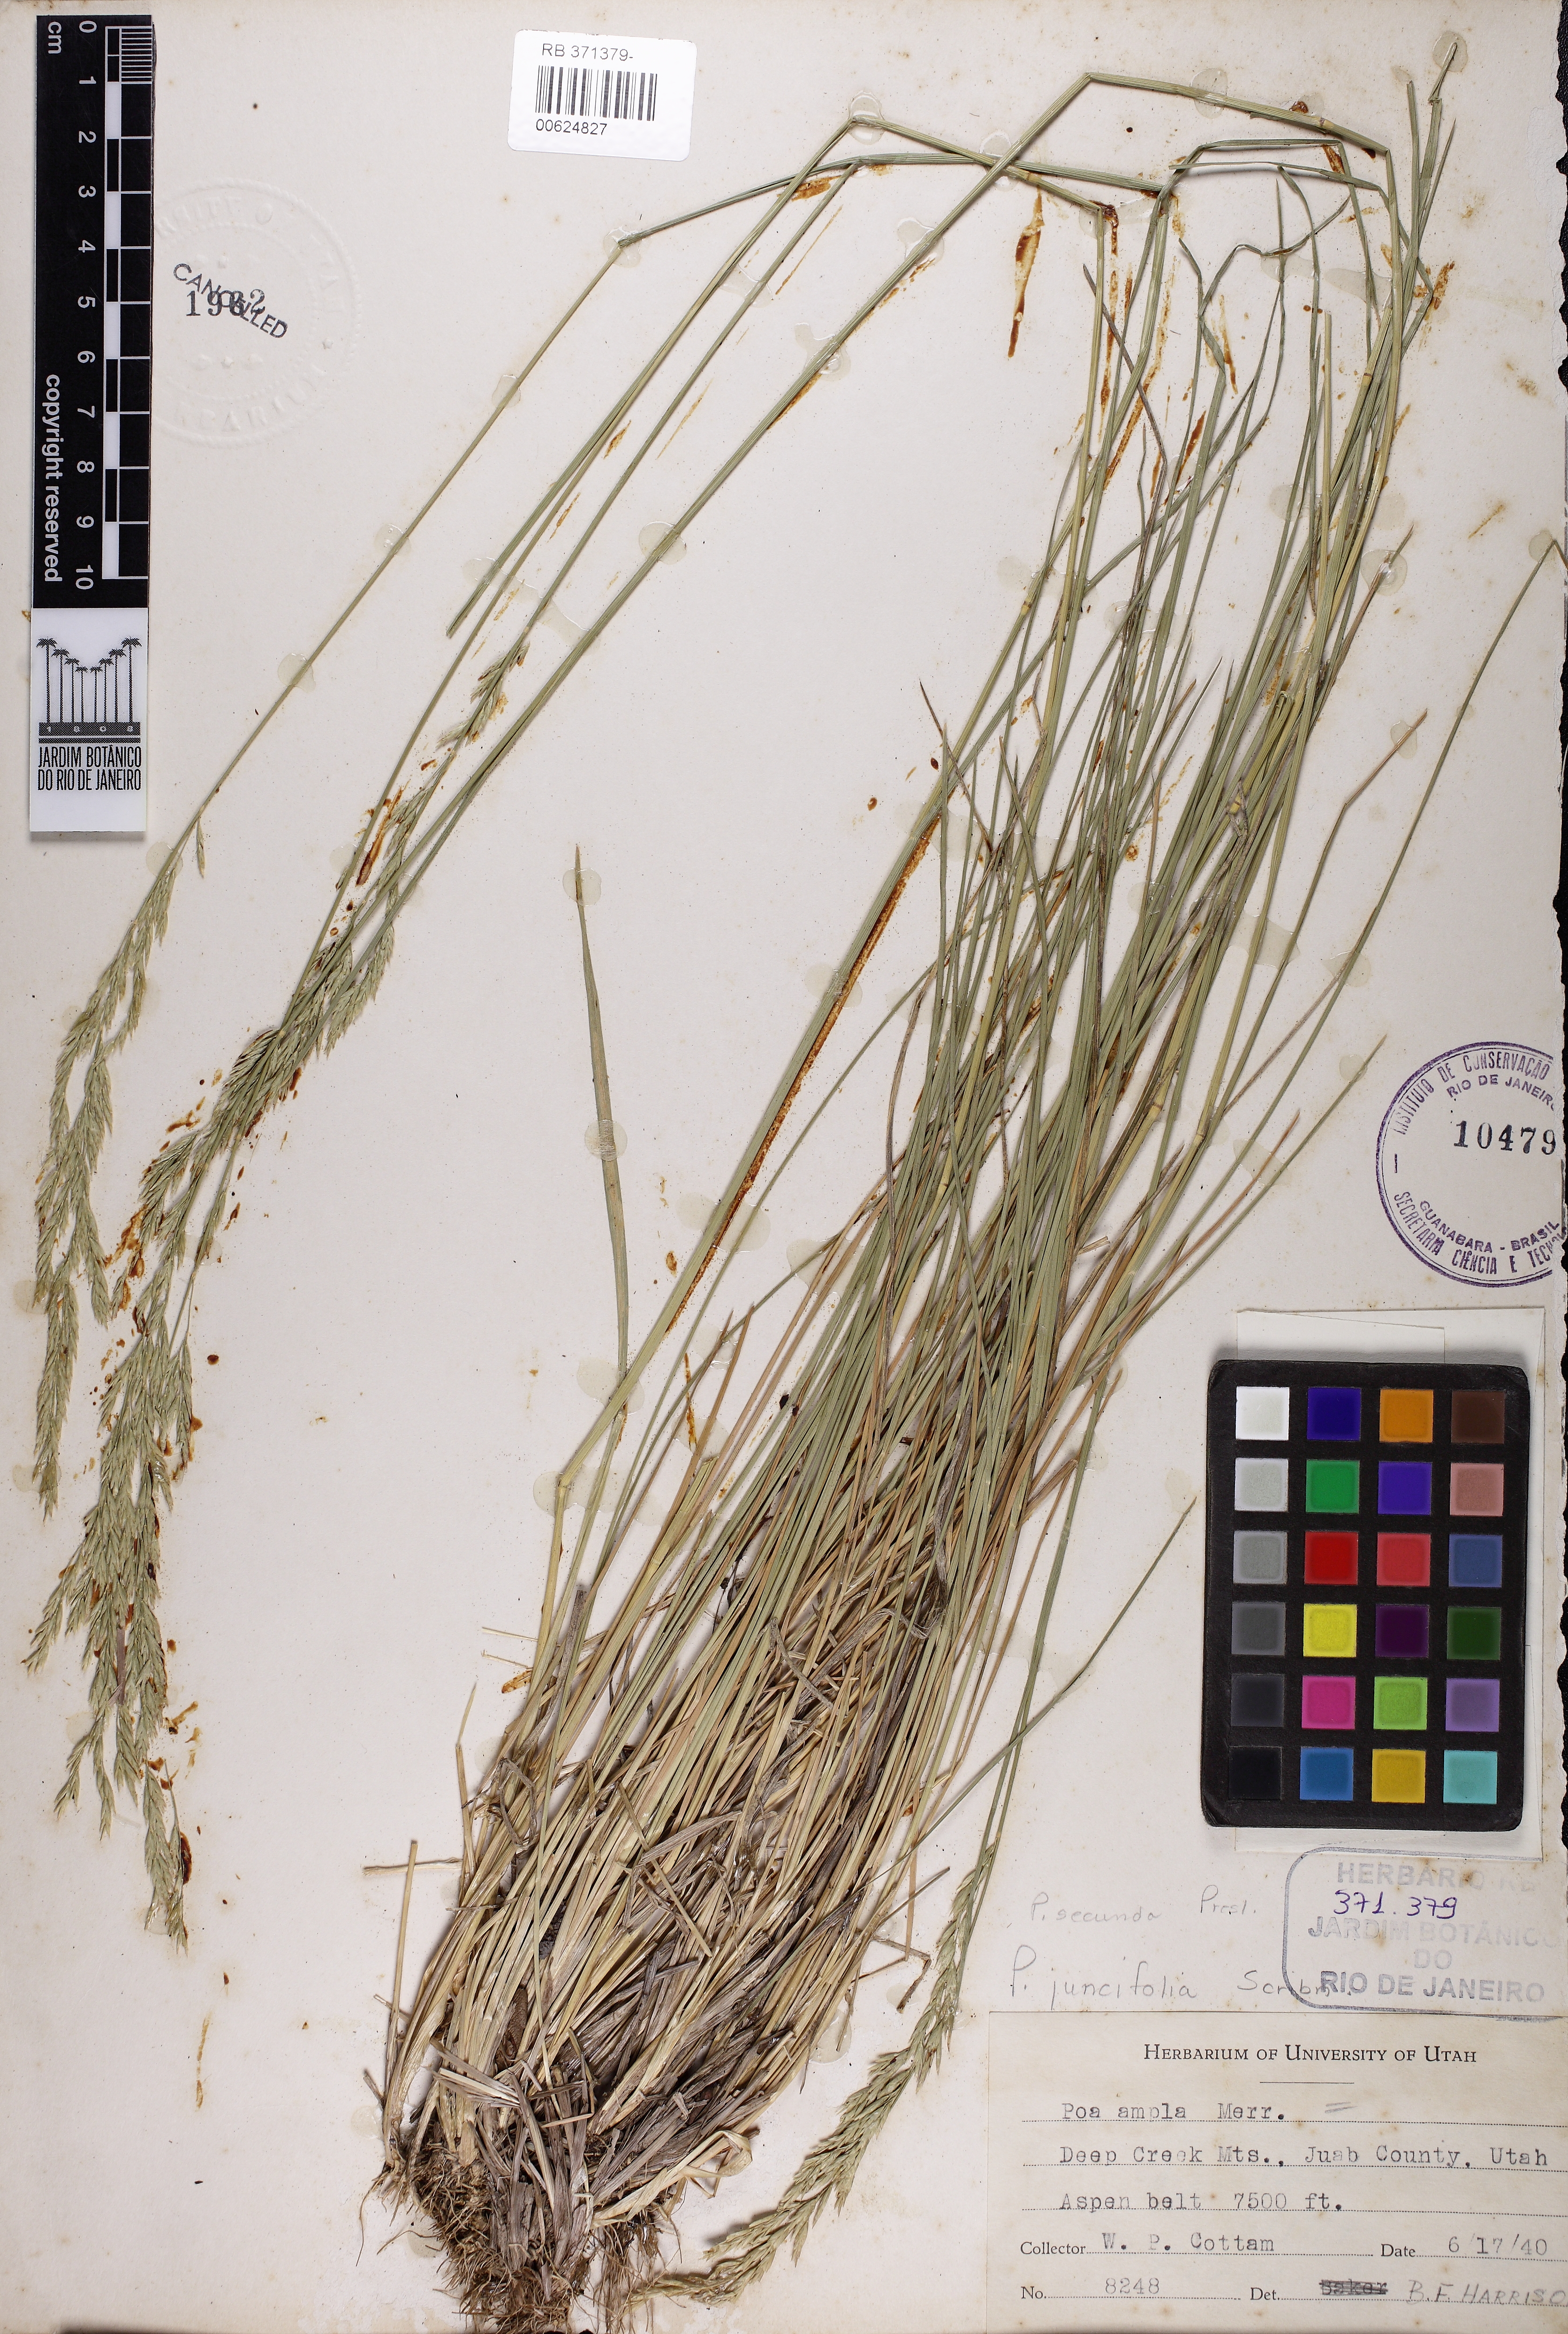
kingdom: Plantae
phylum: Tracheophyta
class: Liliopsida
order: Poales
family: Poaceae
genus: Poa
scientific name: Poa secunda
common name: Sandberg bluegrass
